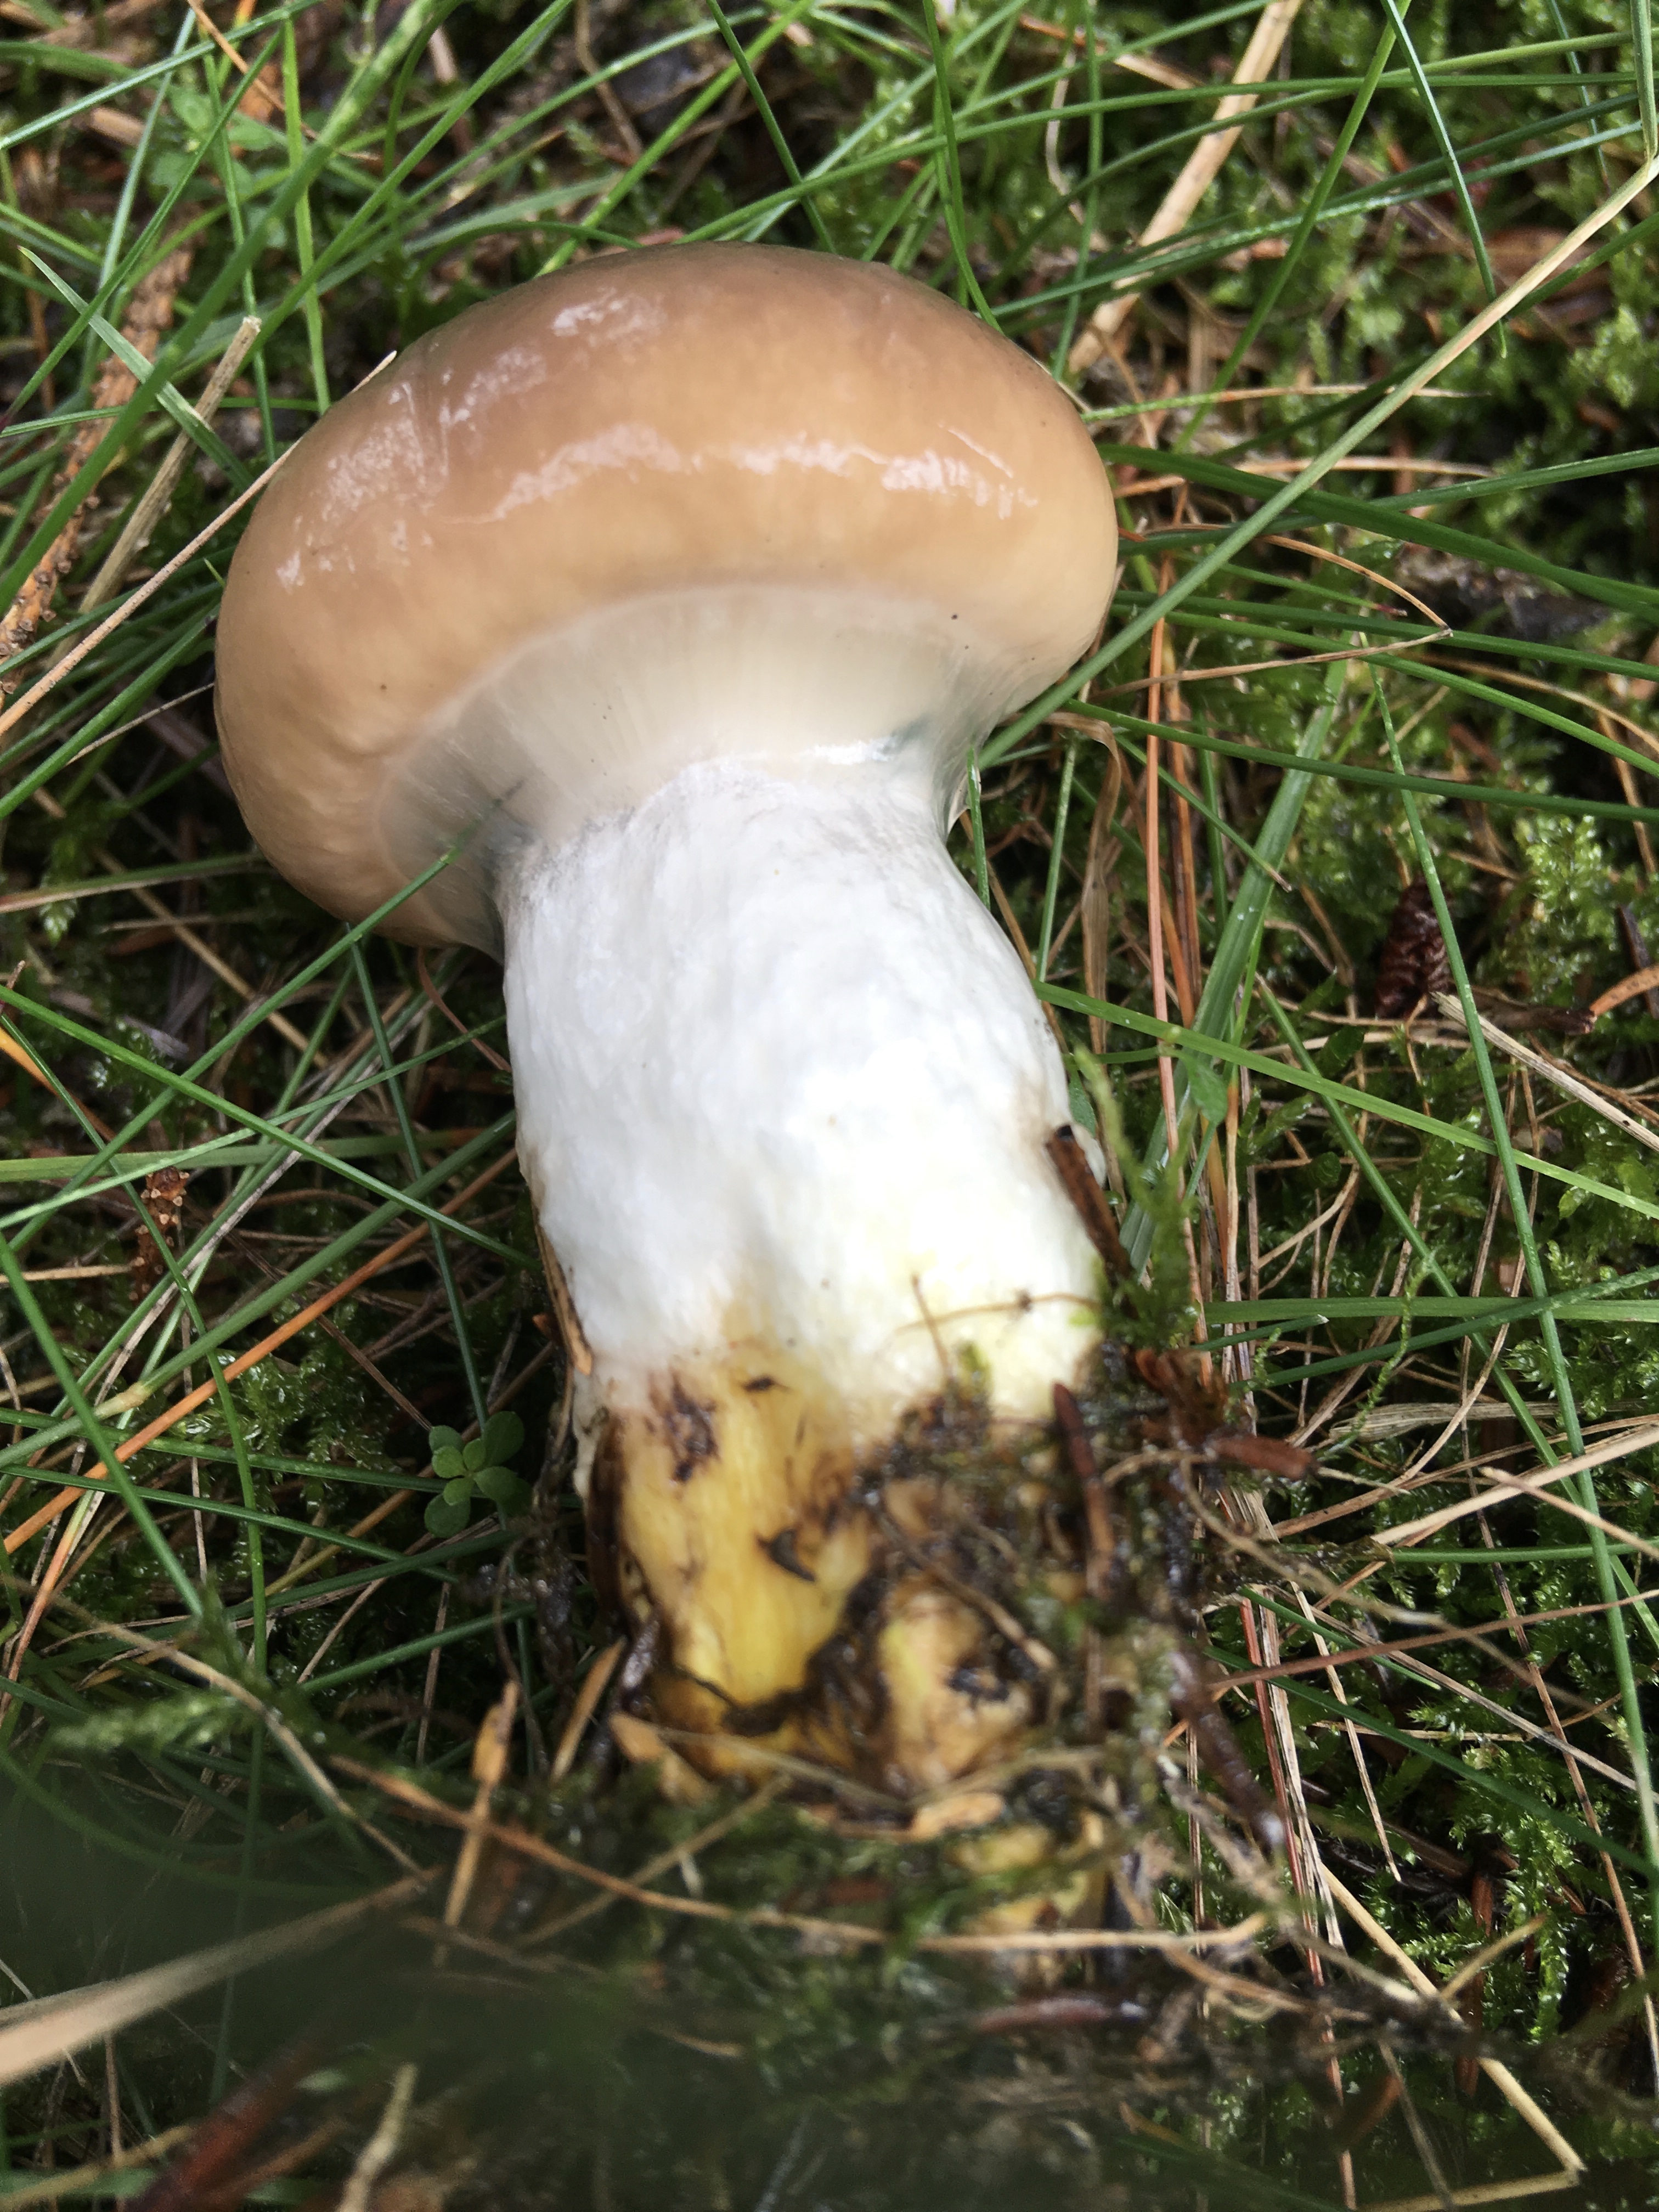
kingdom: Fungi
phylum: Basidiomycota
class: Agaricomycetes
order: Boletales
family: Gomphidiaceae
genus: Gomphidius
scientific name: Gomphidius glutinosus
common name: grå slimslør
